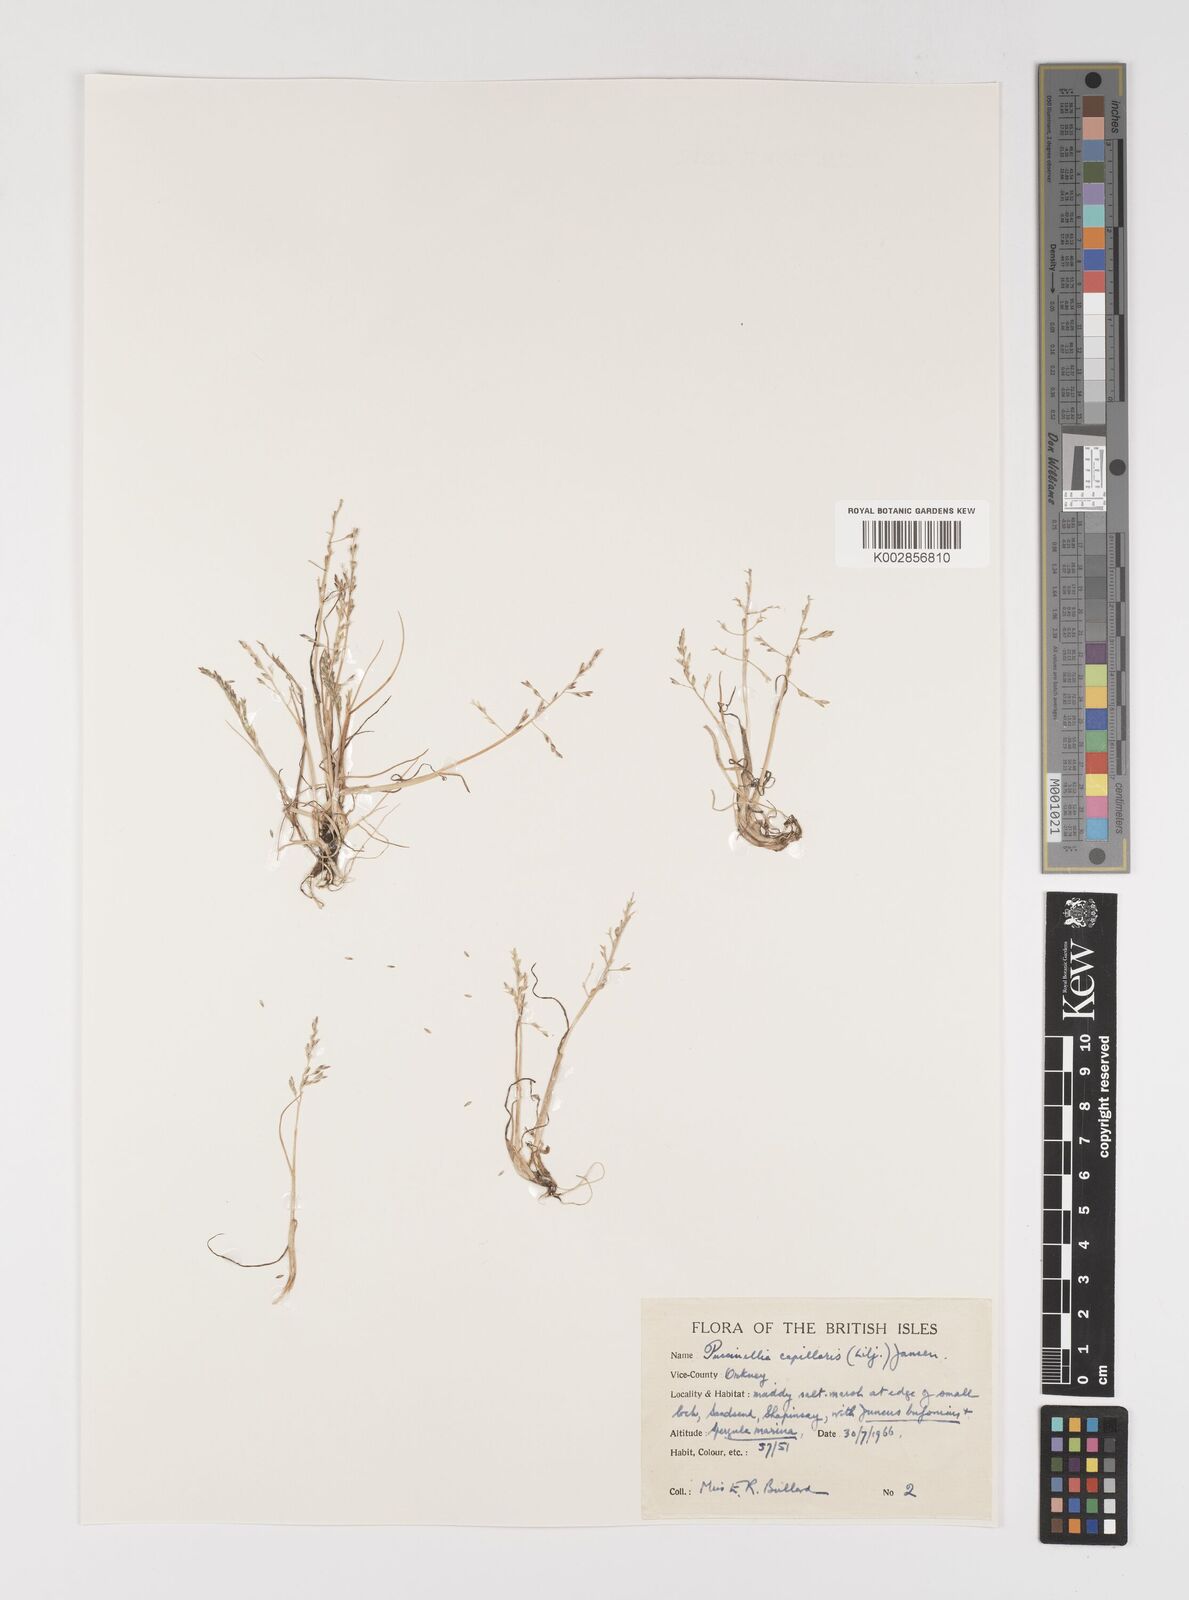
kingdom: Plantae
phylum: Tracheophyta
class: Liliopsida
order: Poales
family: Poaceae
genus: Puccinellia
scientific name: Puccinellia distans
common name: Weeping alkaligrass
